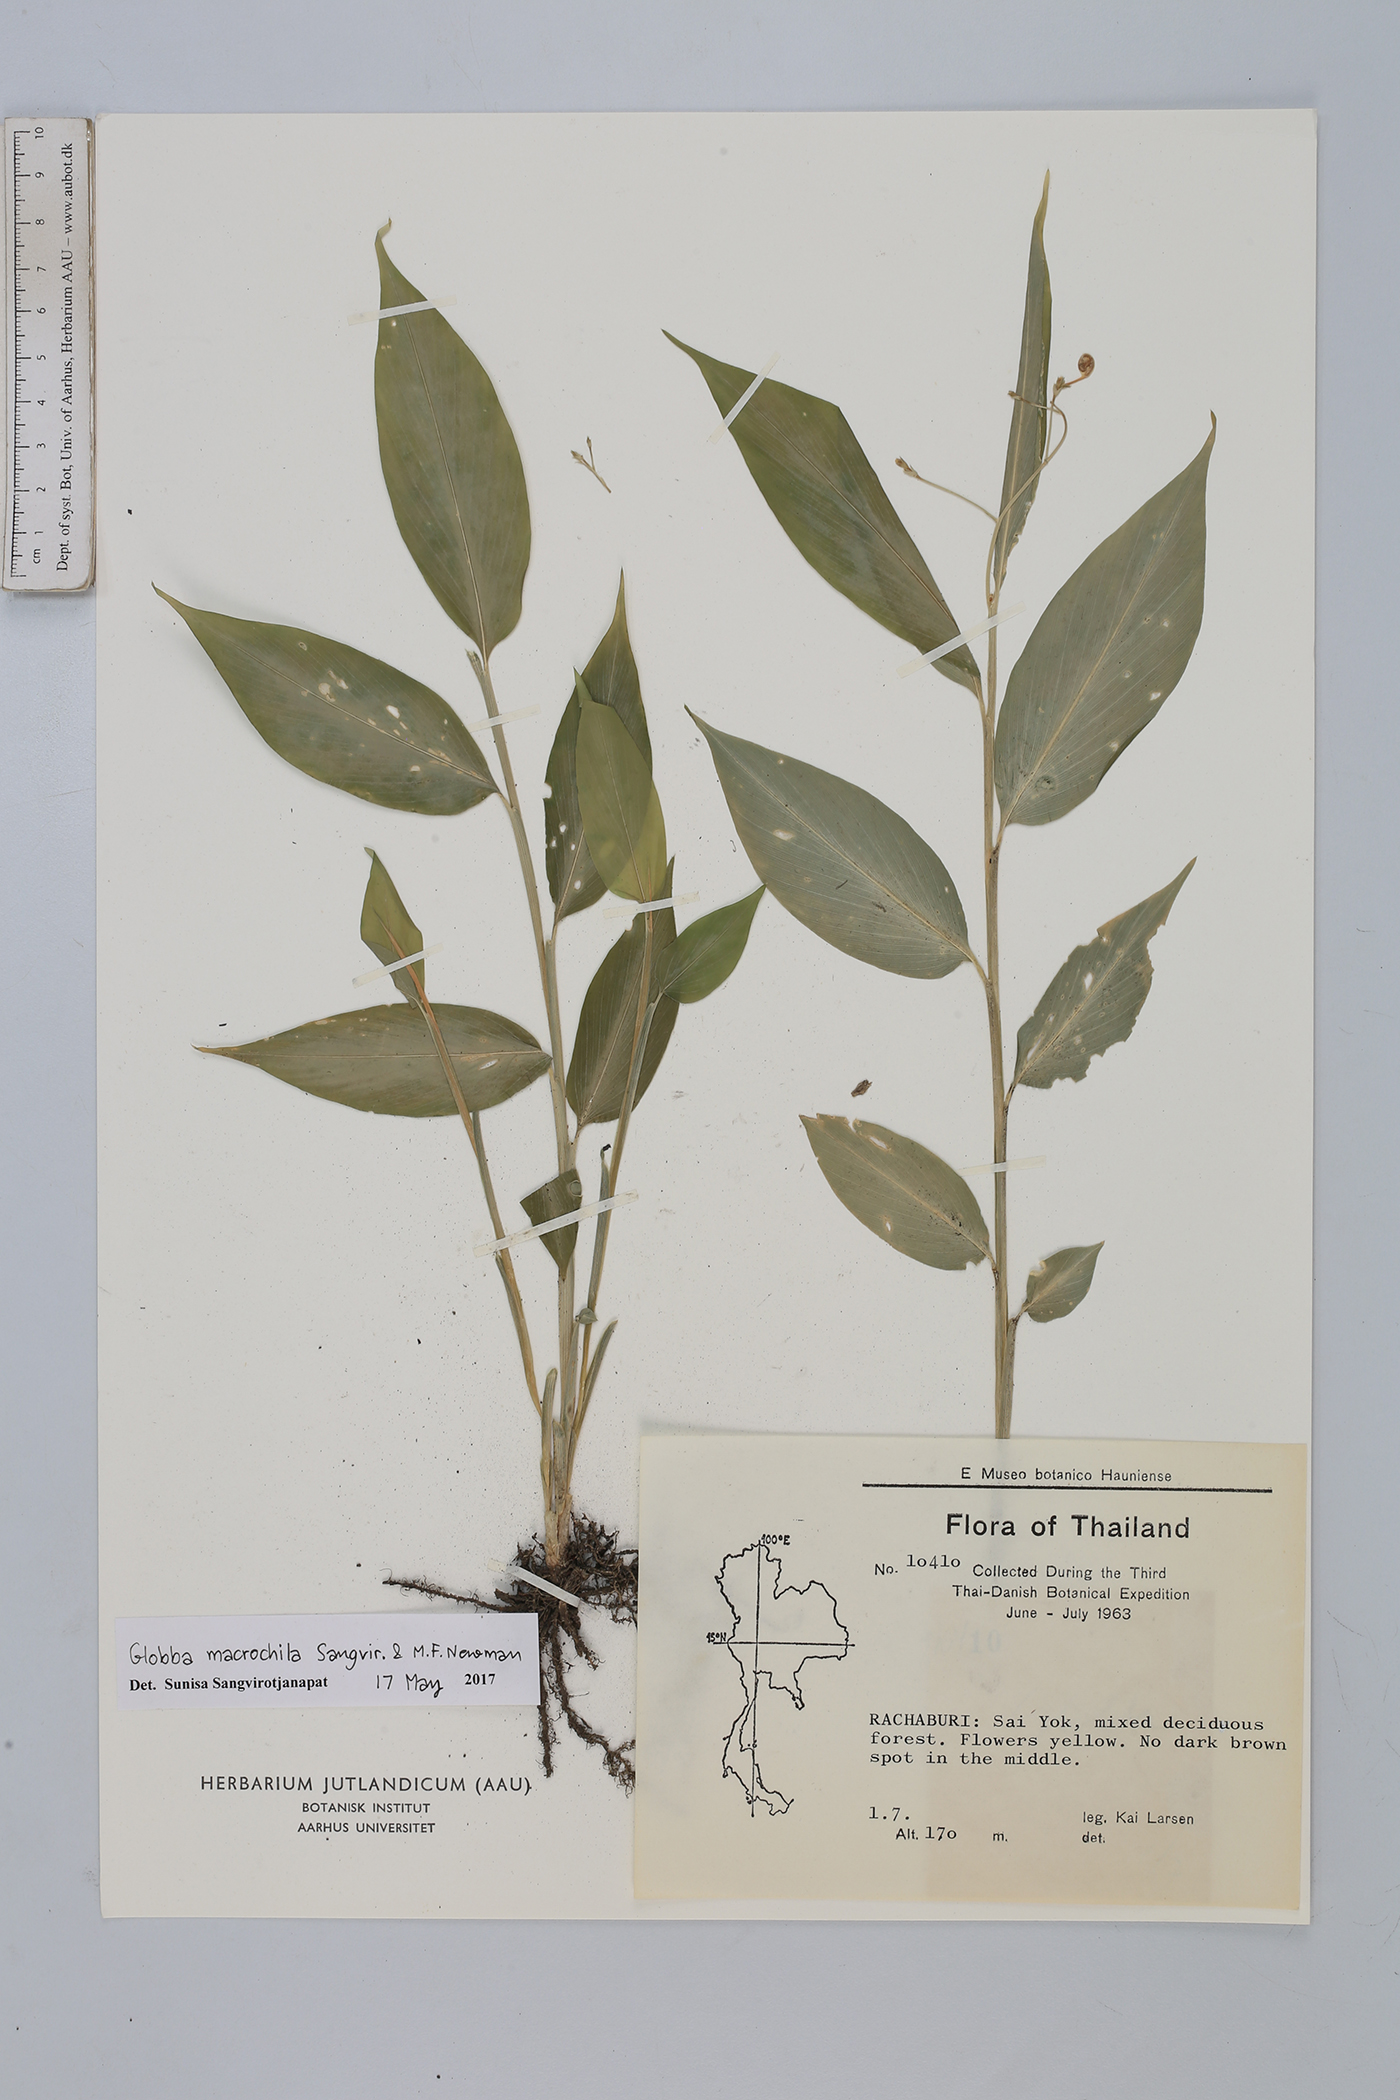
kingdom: Plantae
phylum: Tracheophyta
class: Liliopsida
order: Zingiberales
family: Zingiberaceae
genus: Globba
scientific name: Globba macrochila
